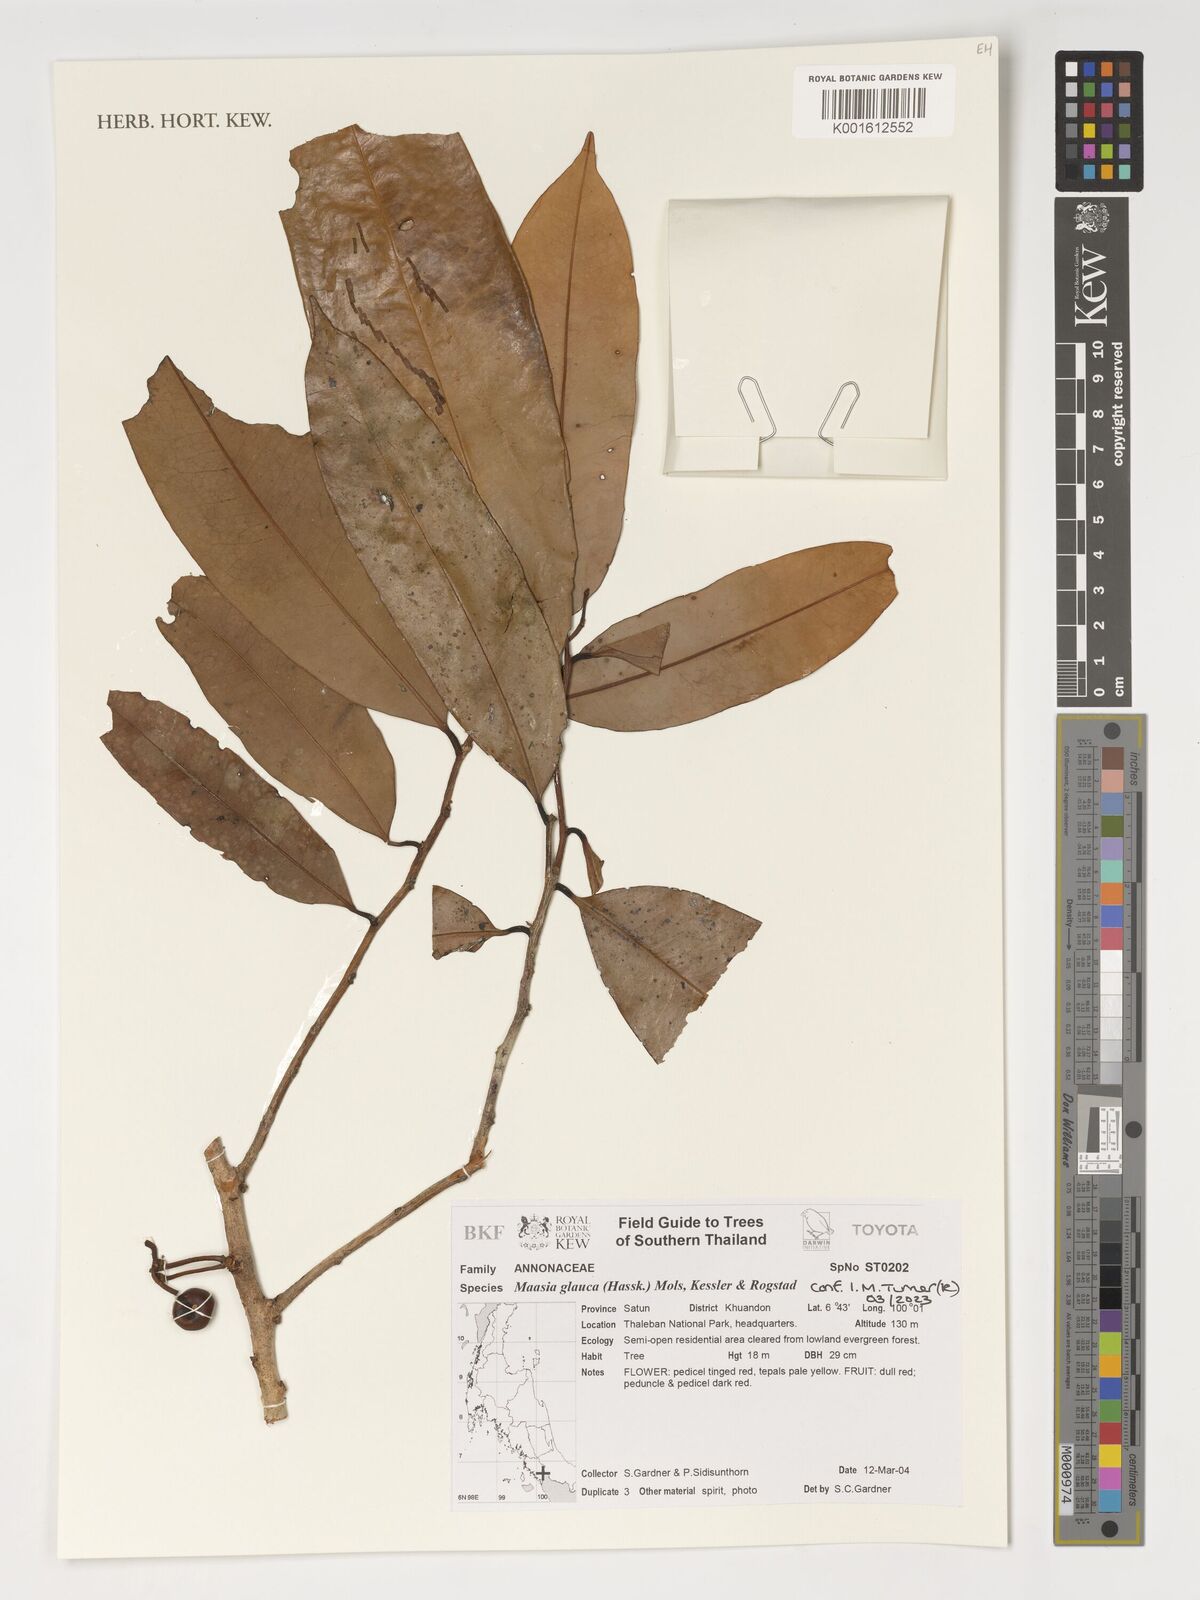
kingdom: Plantae
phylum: Tracheophyta
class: Magnoliopsida
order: Magnoliales
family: Annonaceae
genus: Maasia
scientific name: Maasia glauca
